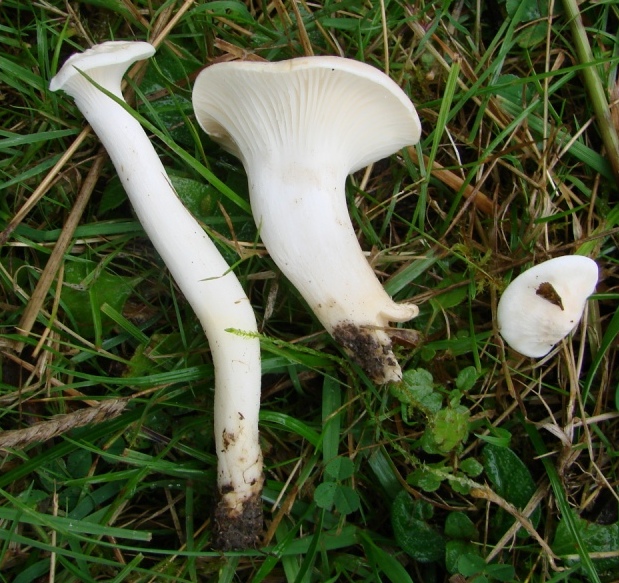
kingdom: Fungi
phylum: Basidiomycota
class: Agaricomycetes
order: Agaricales
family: Hygrophoraceae
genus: Cuphophyllus
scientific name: Cuphophyllus
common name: vokshat
